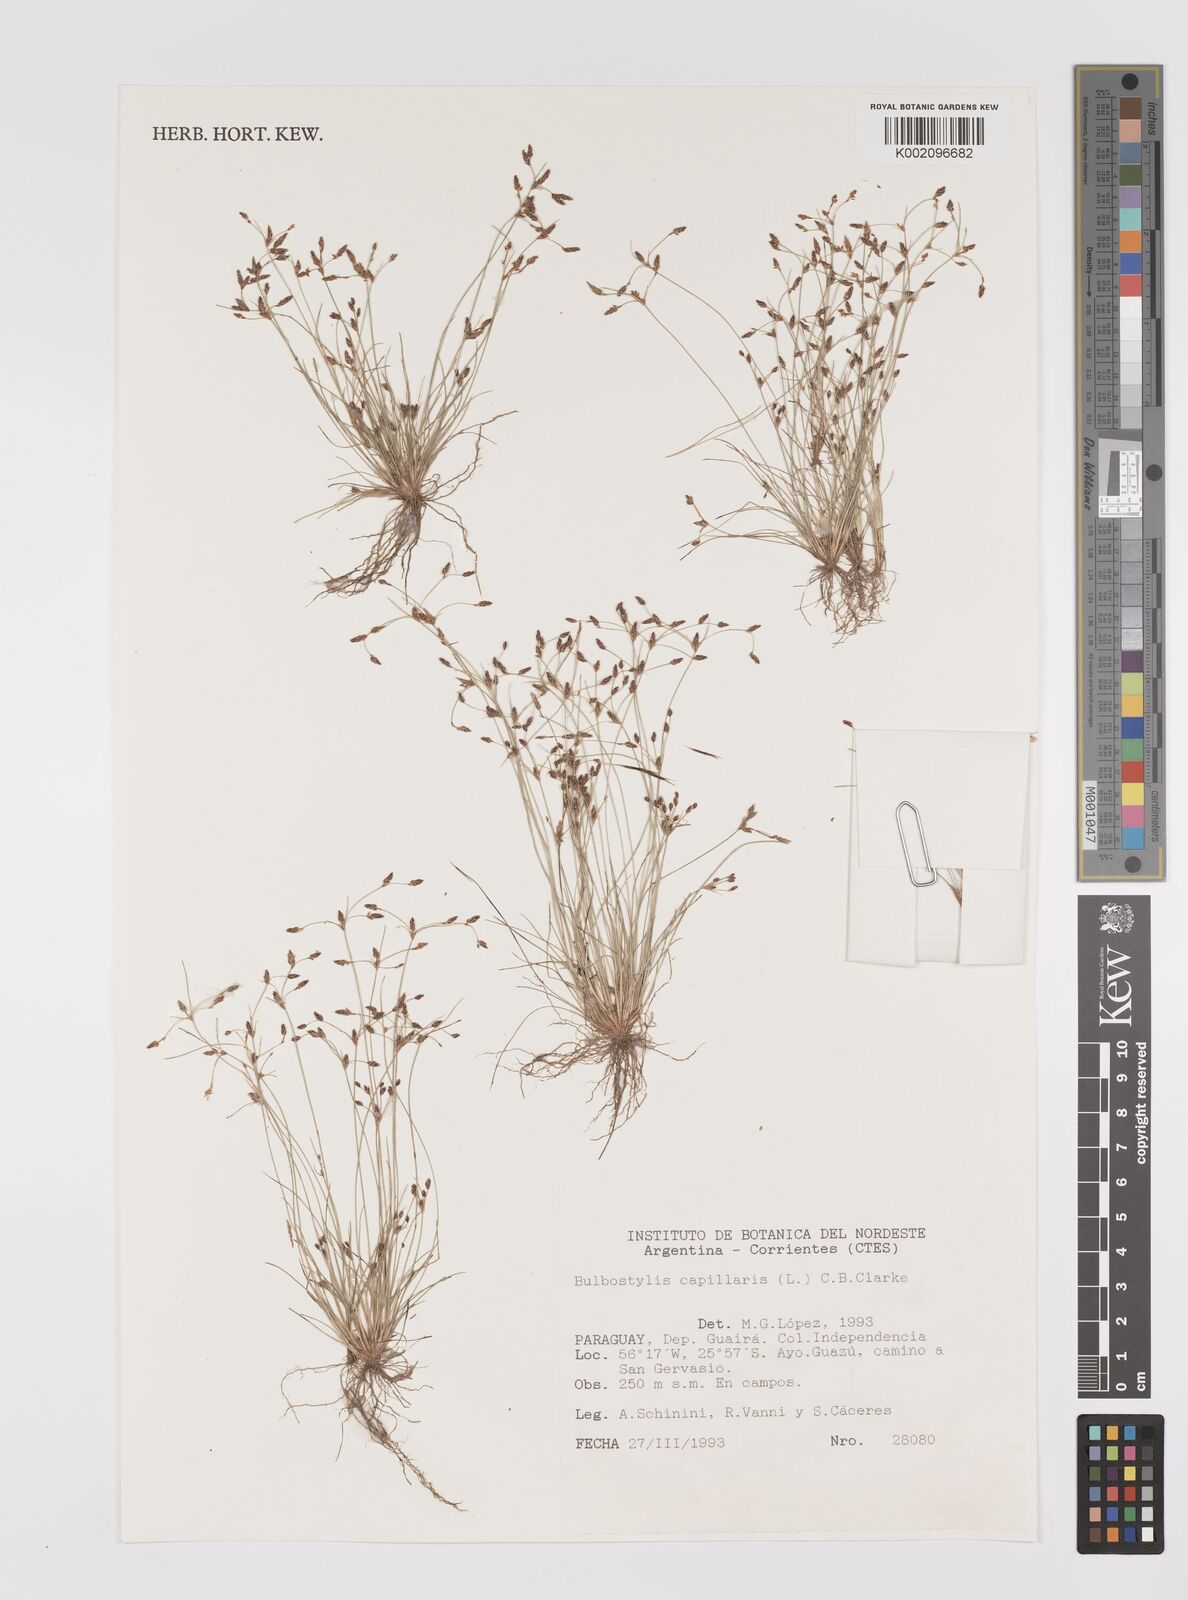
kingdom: Plantae
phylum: Tracheophyta
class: Liliopsida
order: Poales
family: Cyperaceae
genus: Bulbostylis
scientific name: Bulbostylis capillaris
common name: Densetuft hairsedge
